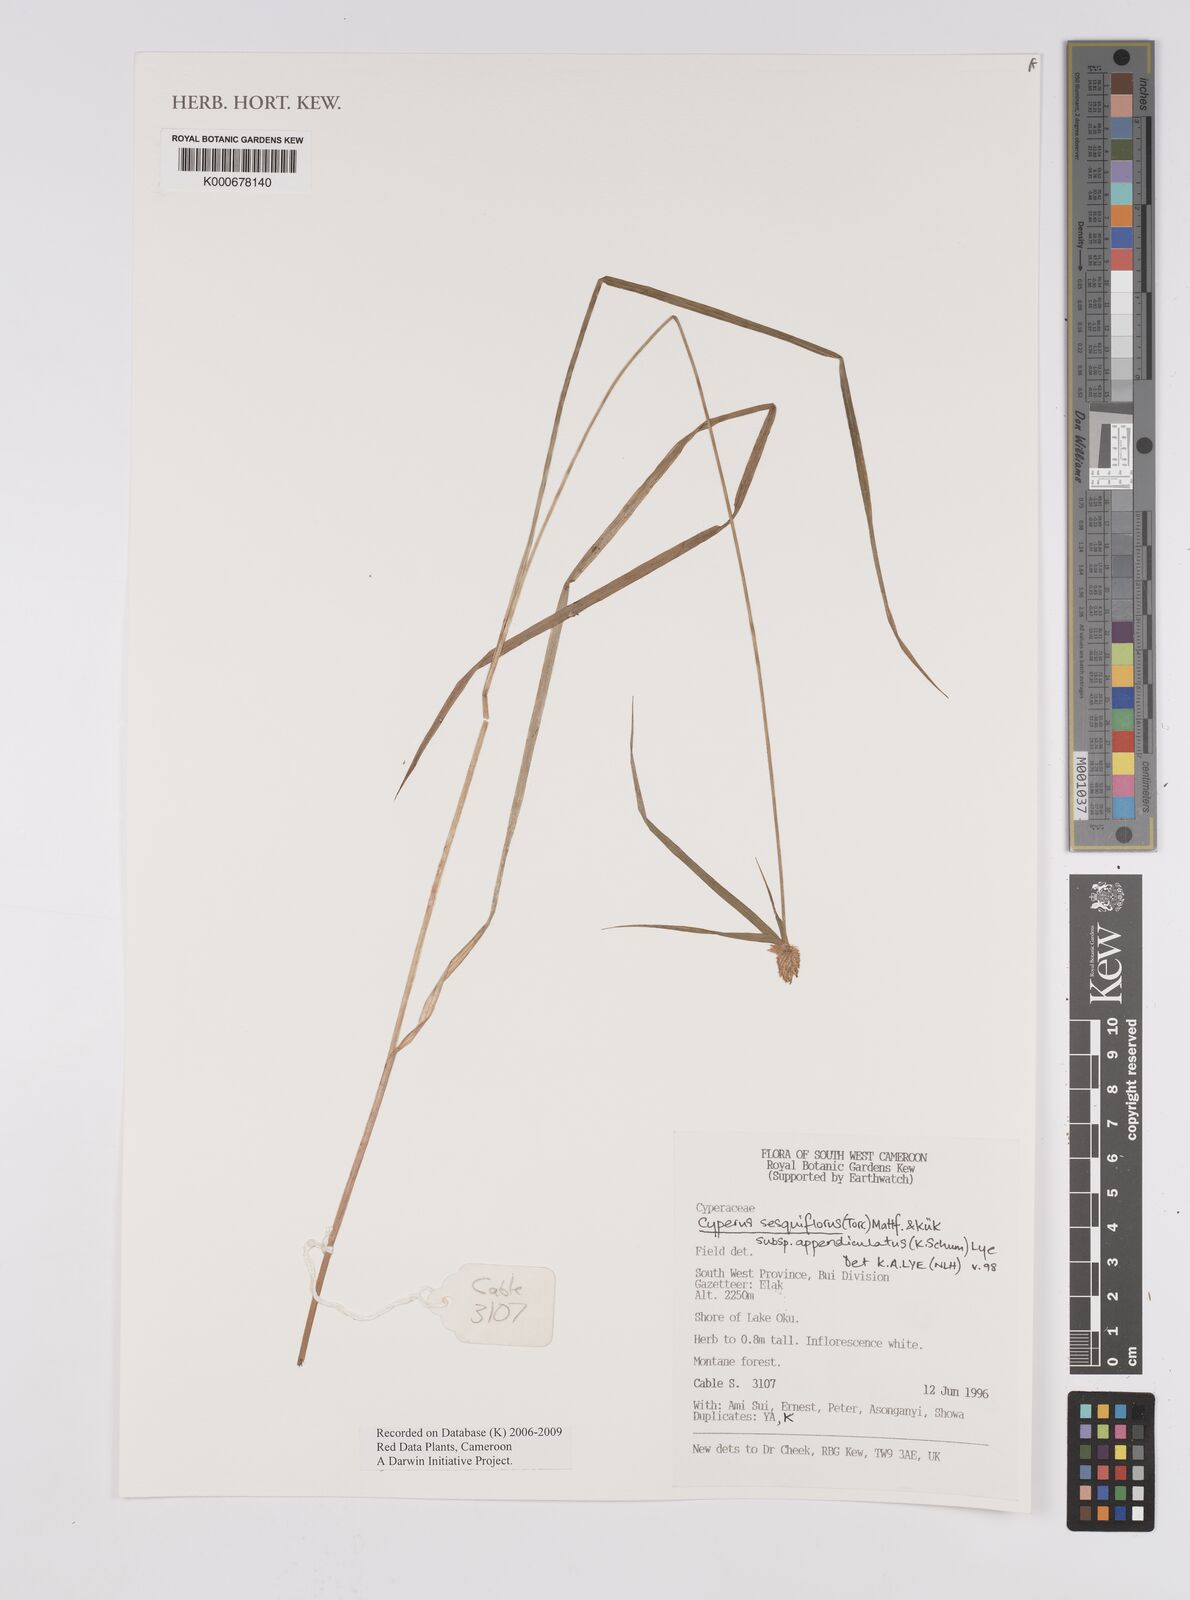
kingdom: Plantae
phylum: Tracheophyta
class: Liliopsida
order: Poales
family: Cyperaceae
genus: Cyperus
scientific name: Cyperus sesquiflorus
